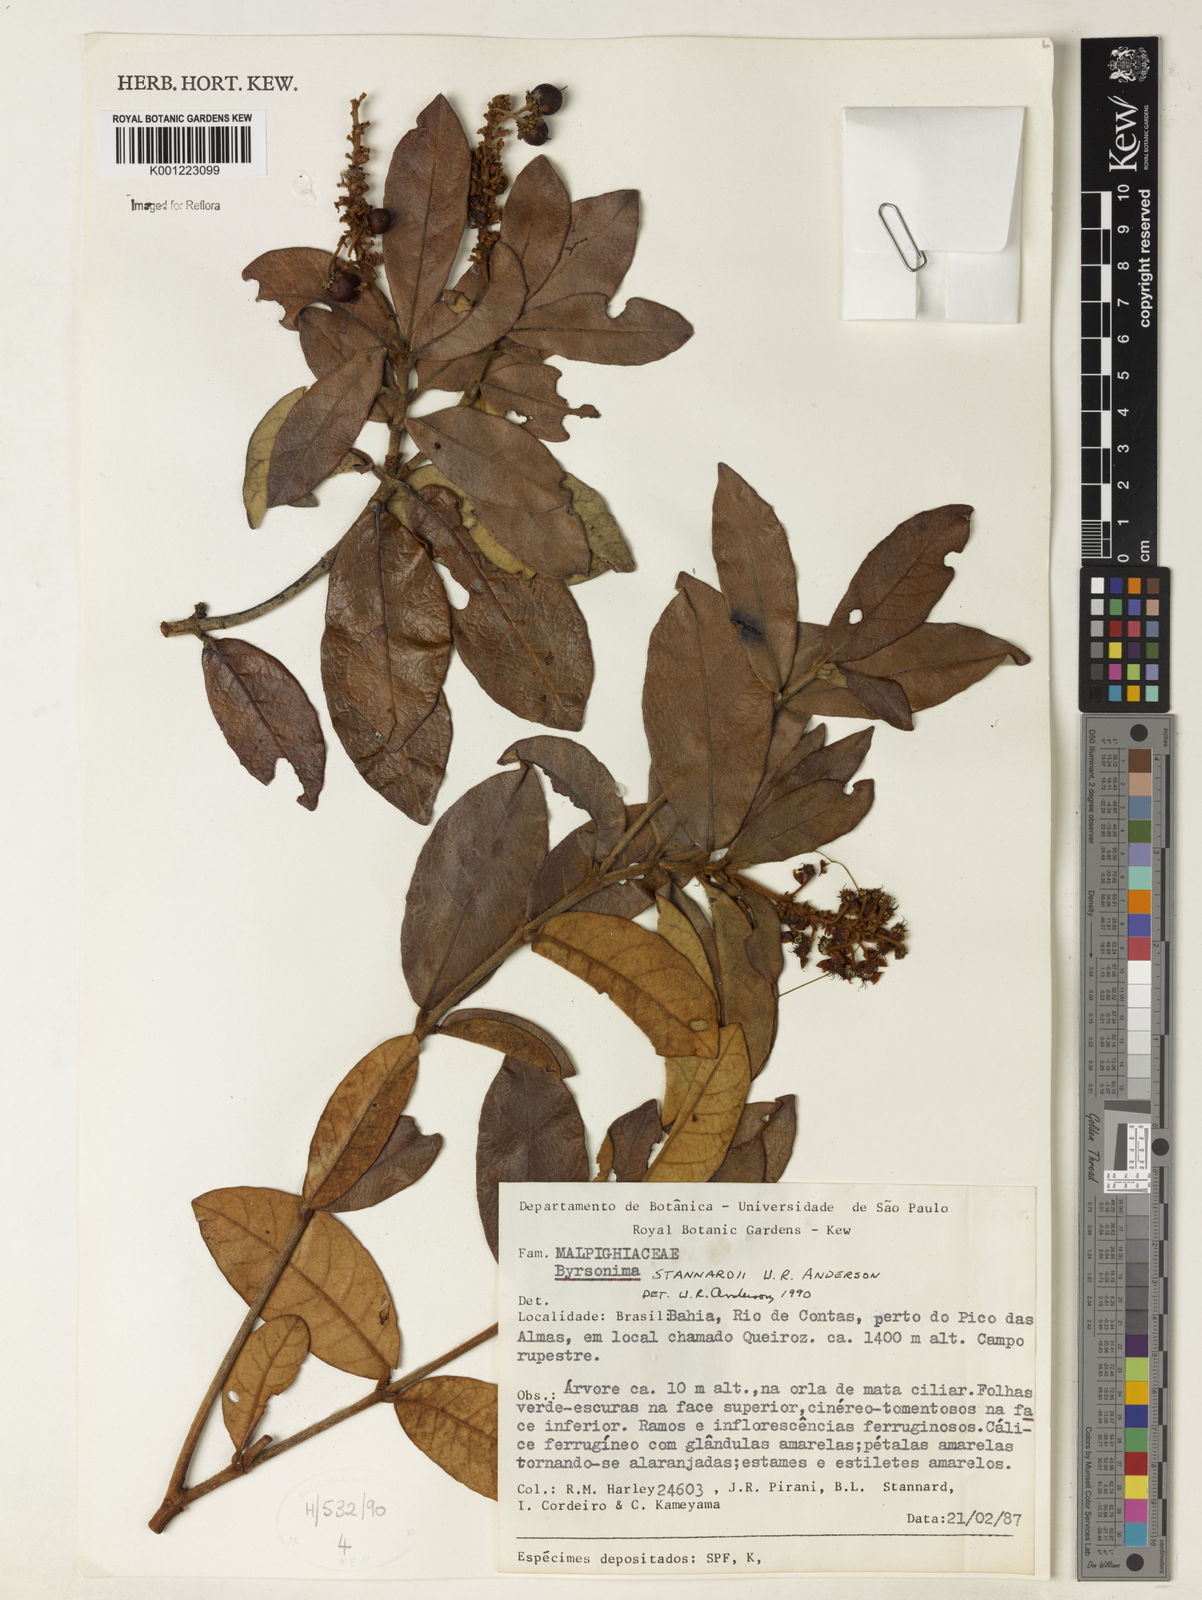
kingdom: Plantae
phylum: Tracheophyta
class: Magnoliopsida
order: Malpighiales
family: Malpighiaceae
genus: Byrsonima
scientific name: Byrsonima stannardii
